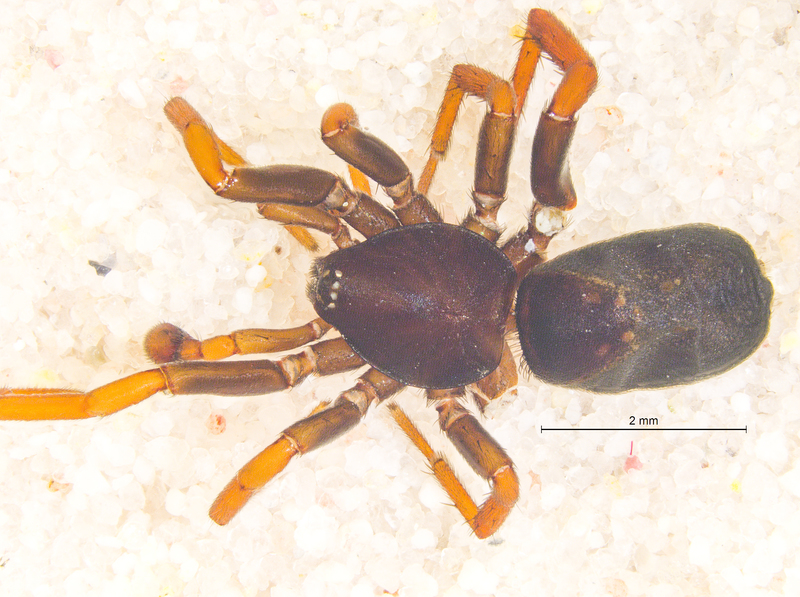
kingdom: Animalia
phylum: Arthropoda
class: Arachnida
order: Araneae
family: Gnaphosidae
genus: Trachyzelotes
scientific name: Trachyzelotes pedestris
